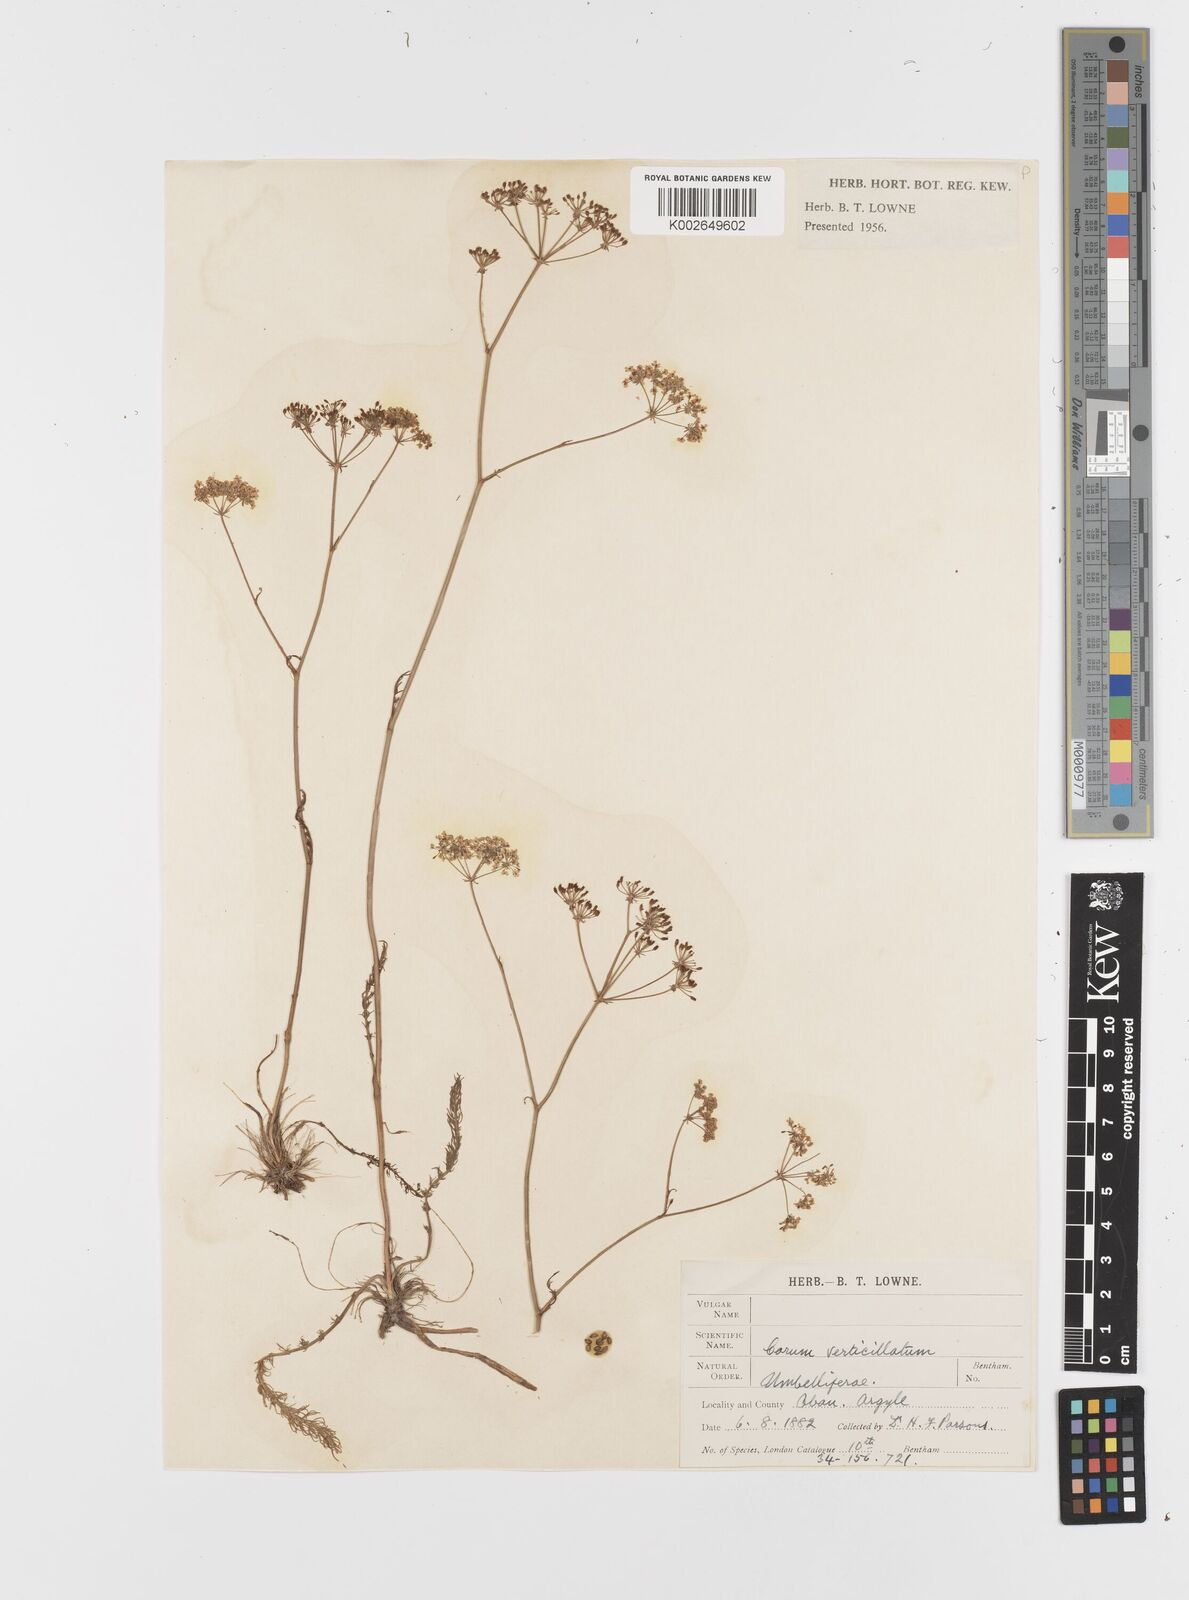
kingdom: Plantae
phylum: Tracheophyta
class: Magnoliopsida
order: Apiales
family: Apiaceae
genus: Trocdaris
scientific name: Trocdaris verticillatum
